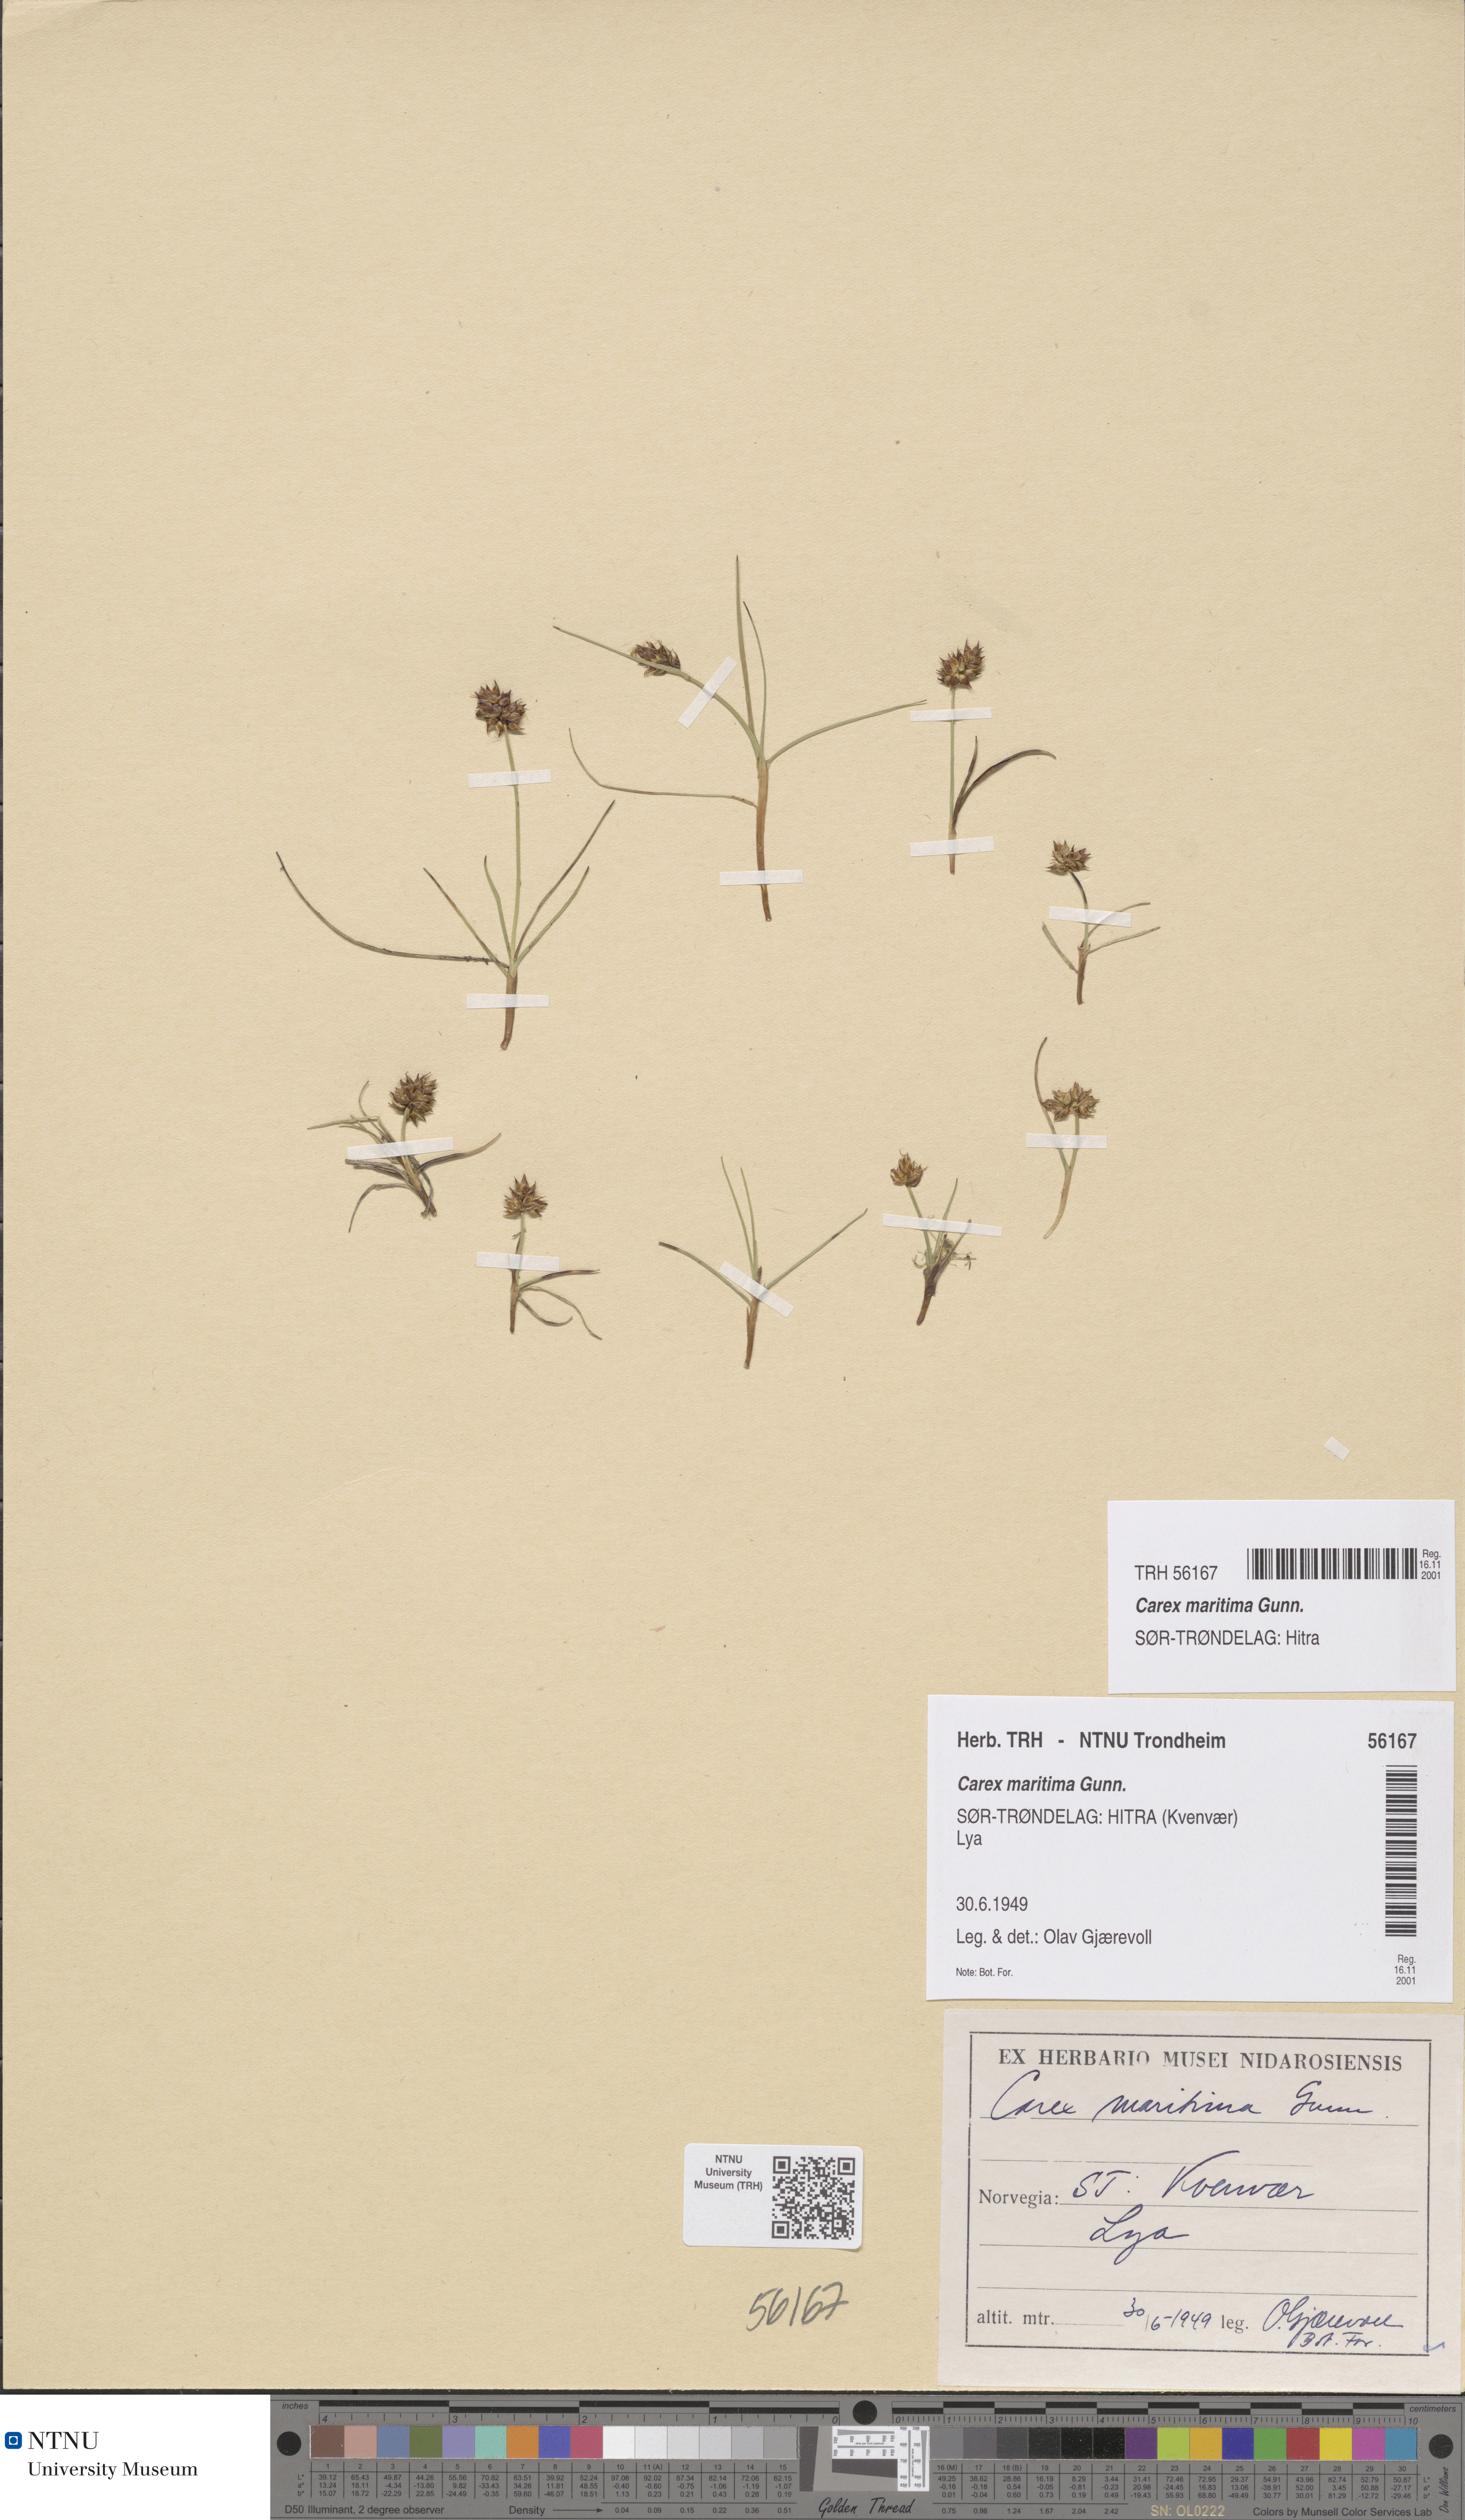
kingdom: Plantae
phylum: Tracheophyta
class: Liliopsida
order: Poales
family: Cyperaceae
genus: Carex
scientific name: Carex maritima
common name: Curved sedge
